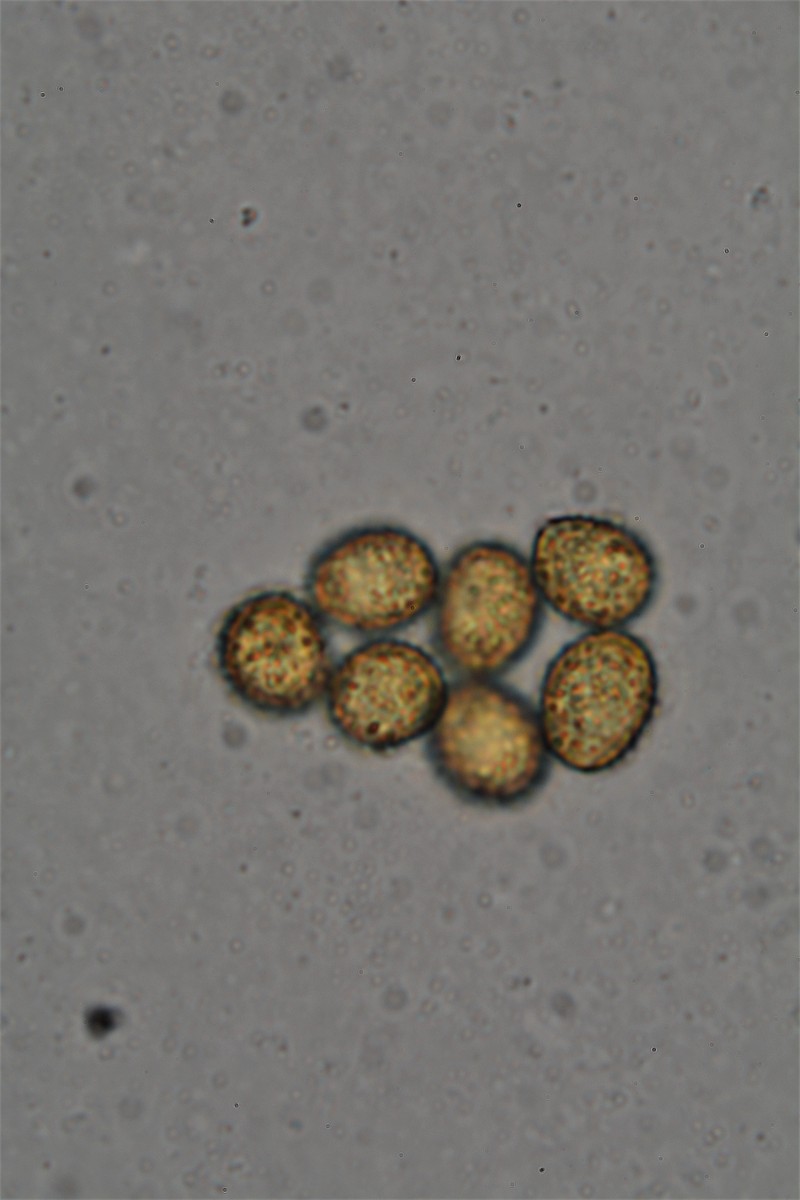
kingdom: Fungi
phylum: Basidiomycota
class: Agaricomycetes
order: Agaricales
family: Cortinariaceae
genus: Cortinarius
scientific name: Cortinarius
